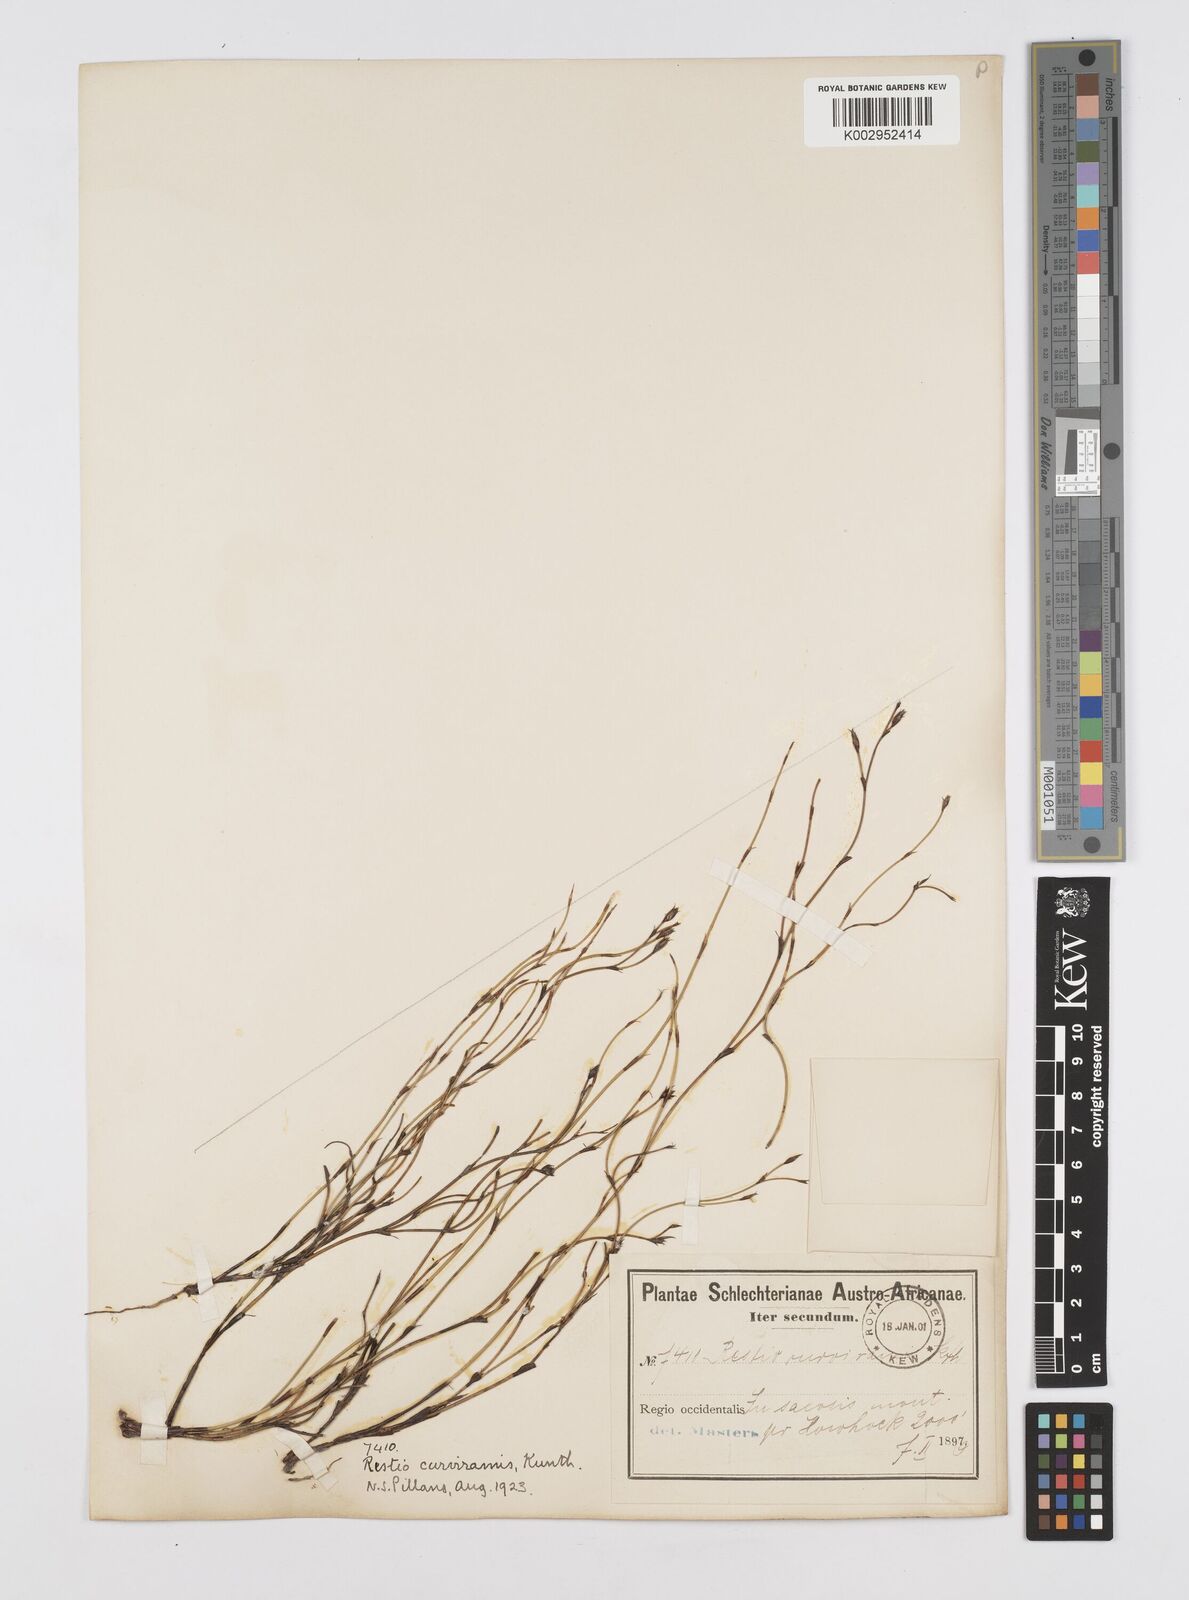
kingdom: Plantae
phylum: Tracheophyta
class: Liliopsida
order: Poales
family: Restionaceae
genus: Restio
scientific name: Restio curviramis
